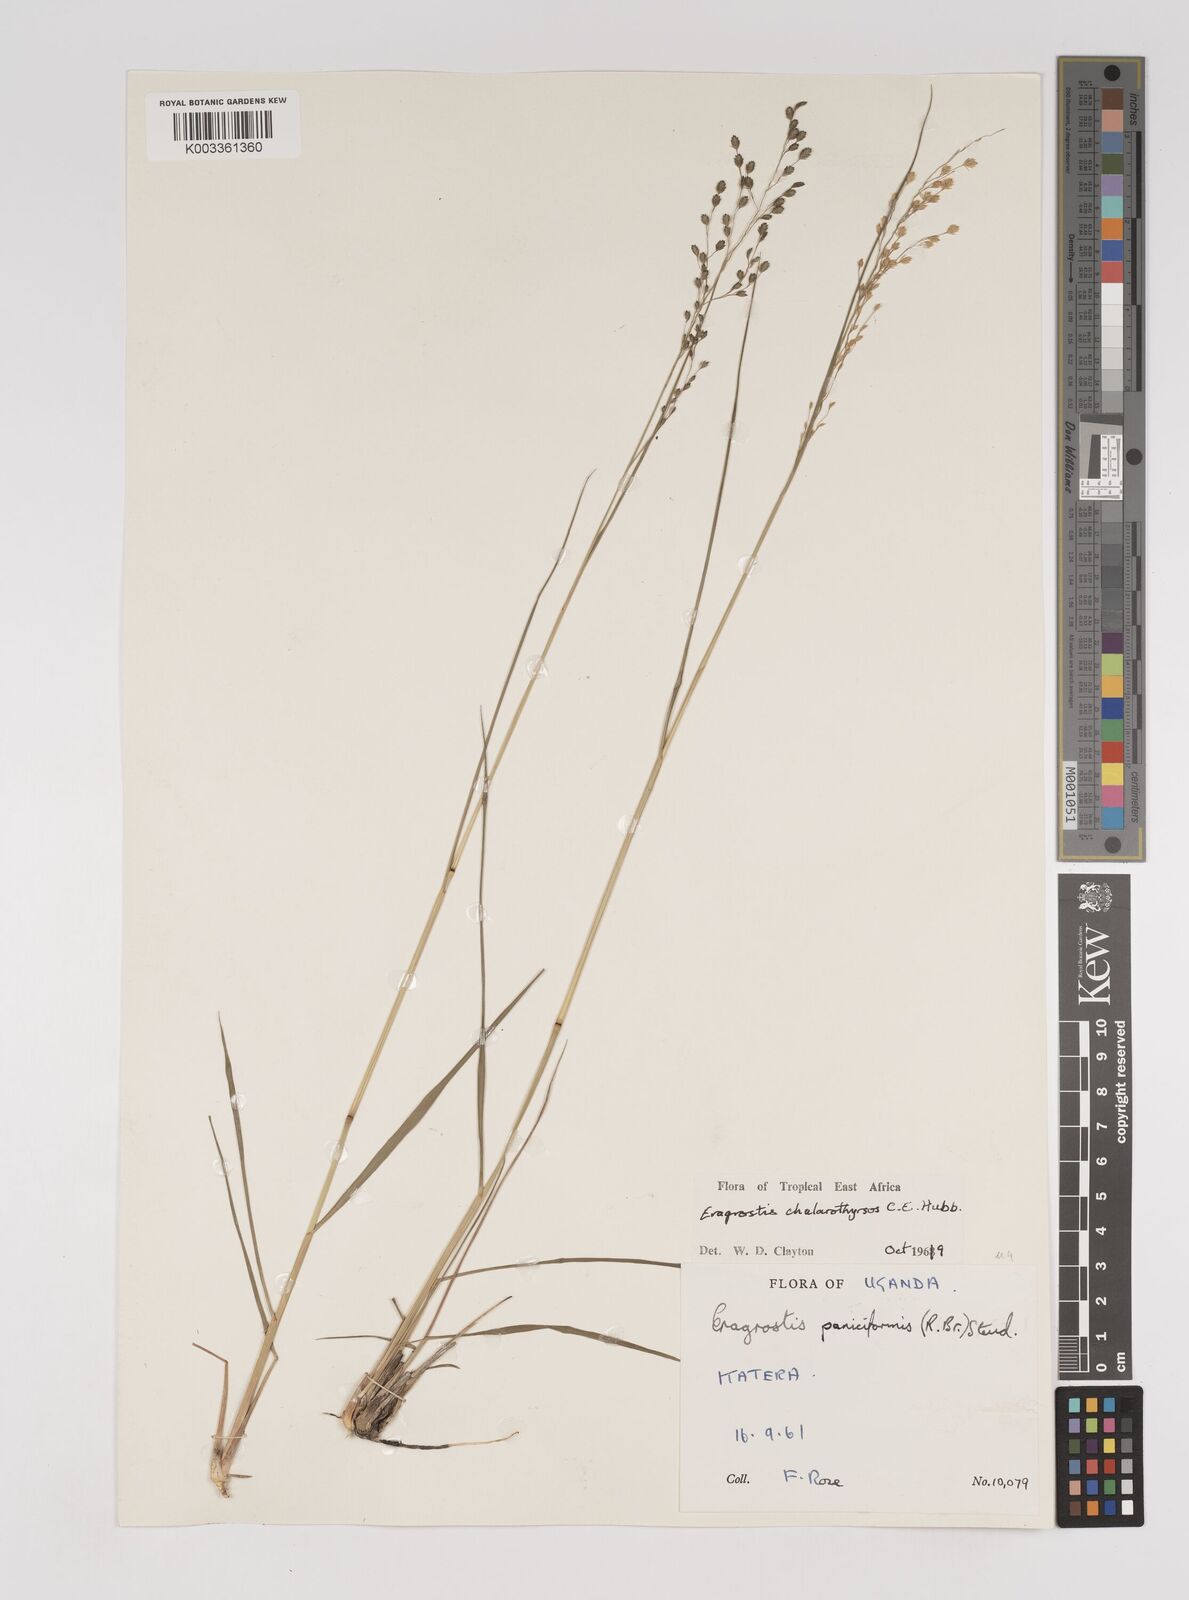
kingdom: Plantae
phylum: Tracheophyta
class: Liliopsida
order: Poales
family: Poaceae
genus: Eragrostis
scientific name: Eragrostis chalarothyrsos
